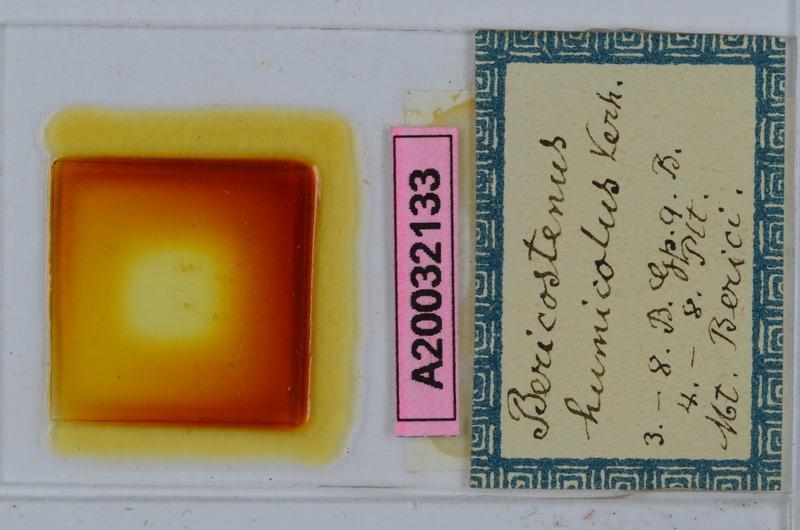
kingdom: Animalia
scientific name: Animalia
